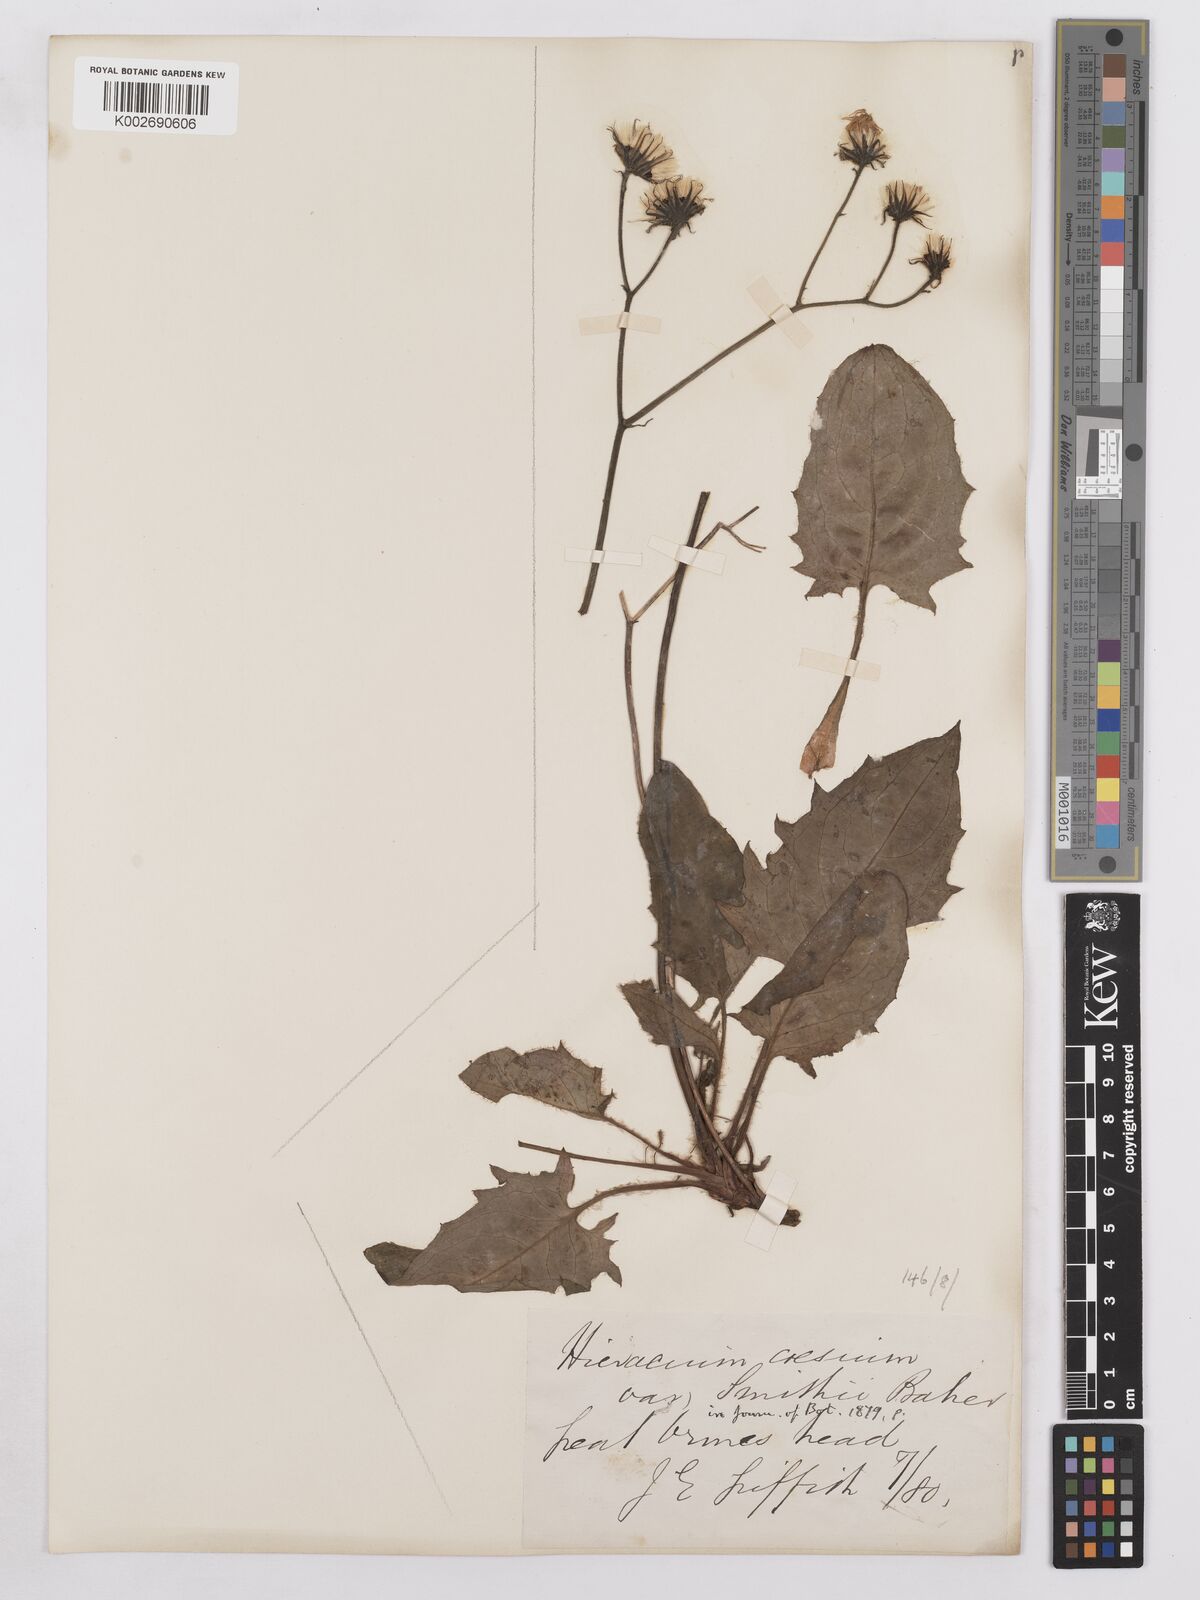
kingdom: Plantae
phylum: Tracheophyta
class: Magnoliopsida
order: Asterales
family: Asteraceae
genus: Hieracium
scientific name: Hieracium subbritannicum
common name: Limestone hawkweed
